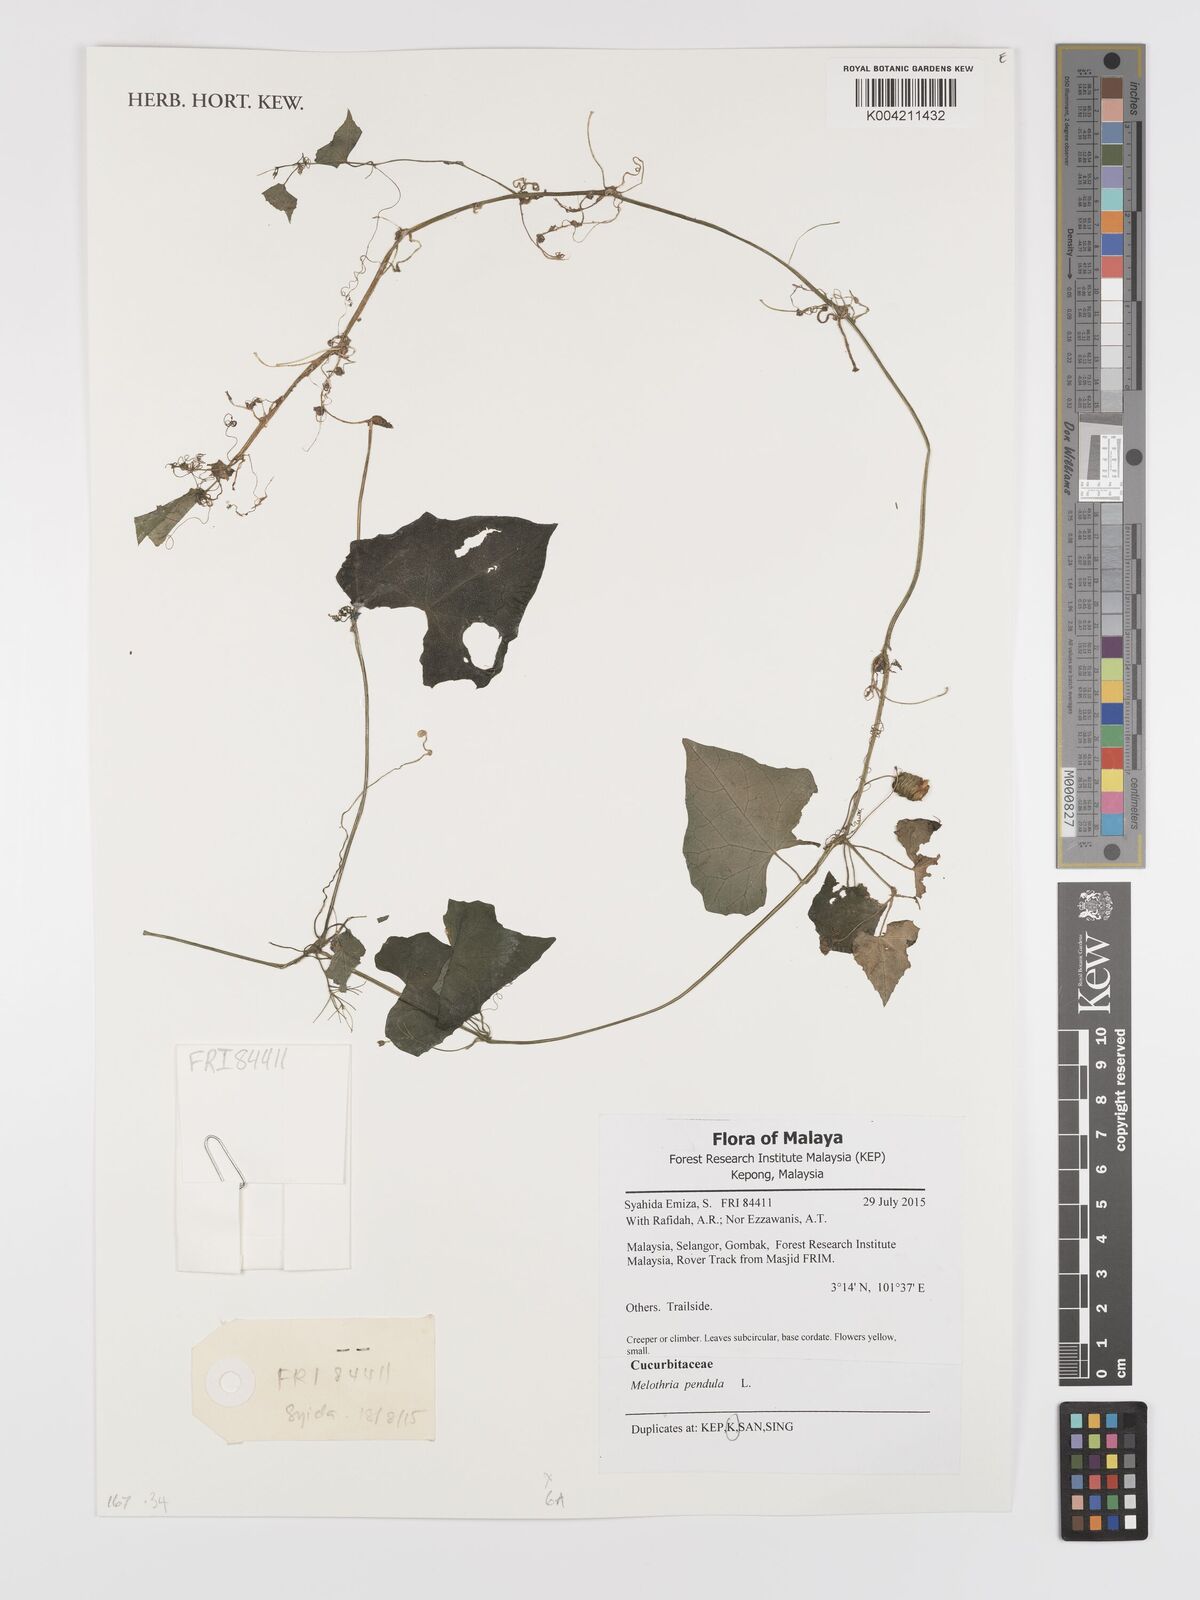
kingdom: Plantae
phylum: Tracheophyta
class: Magnoliopsida
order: Cucurbitales
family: Cucurbitaceae
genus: Melothria
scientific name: Melothria pendula
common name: Creeping-cucumber
